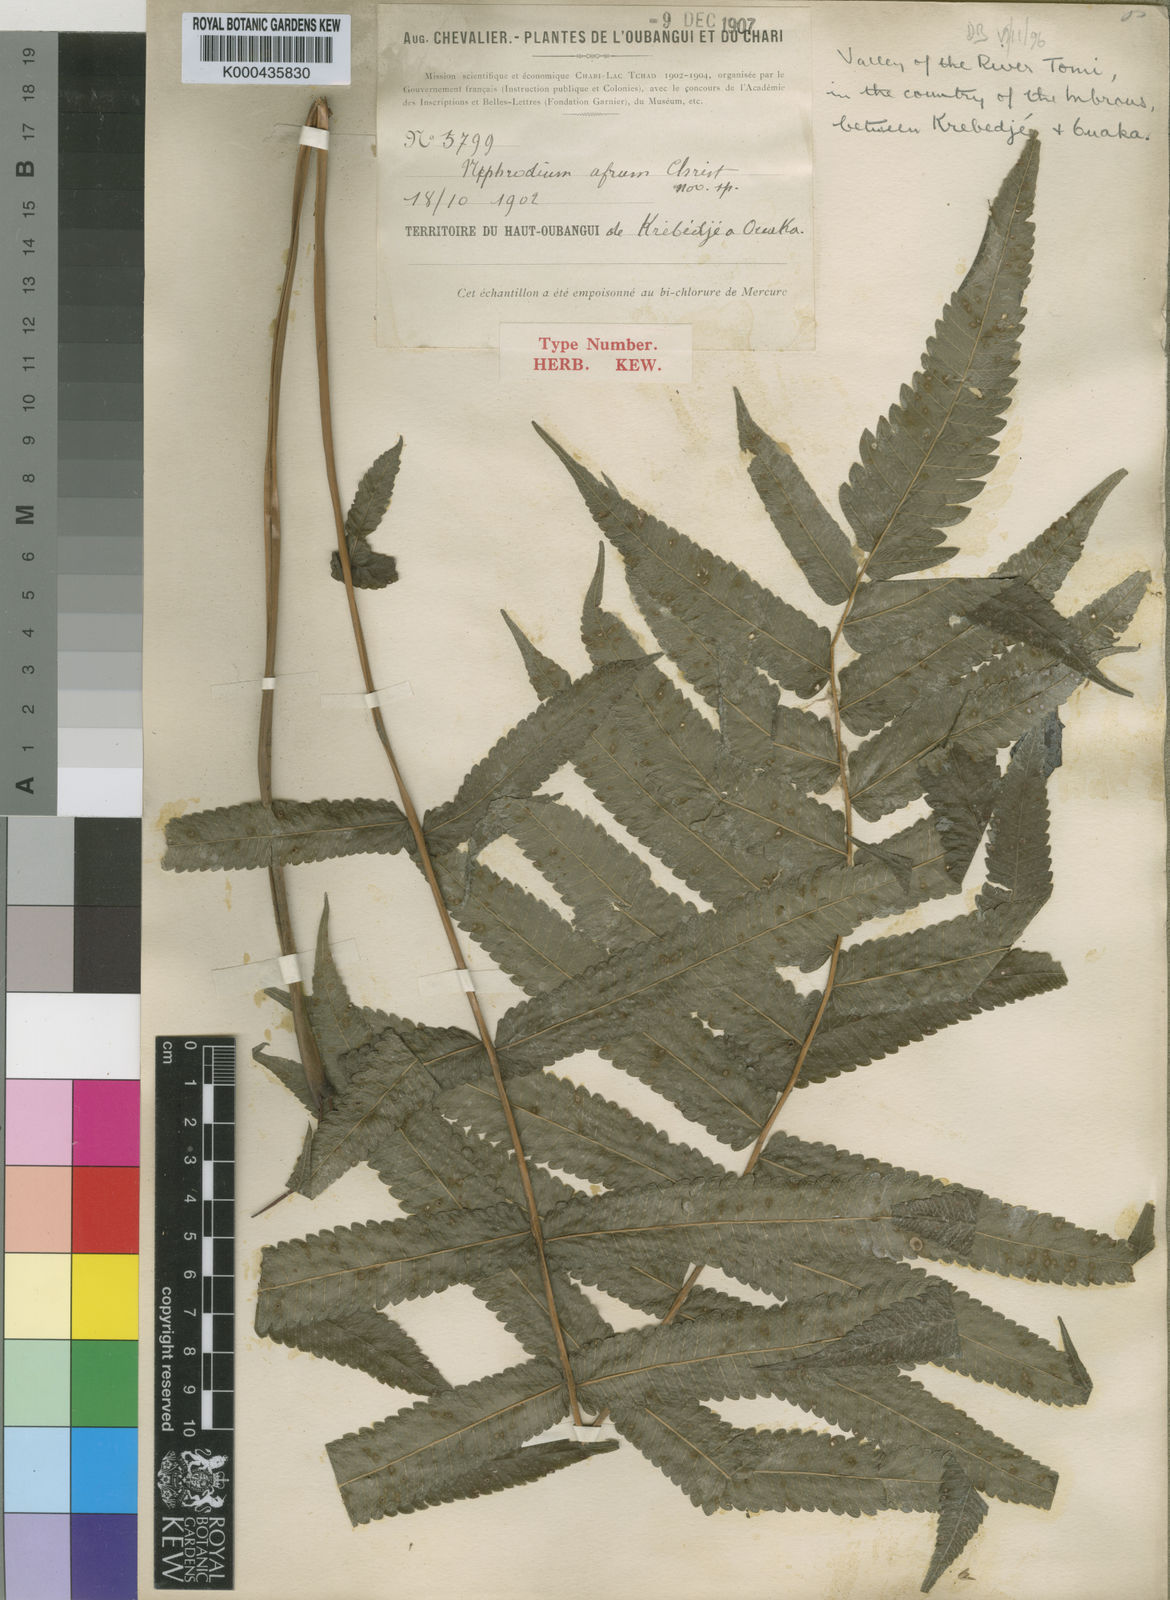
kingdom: Plantae
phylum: Tracheophyta
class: Polypodiopsida
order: Polypodiales
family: Thelypteridaceae
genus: Abacopteris
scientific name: Abacopteris afra
